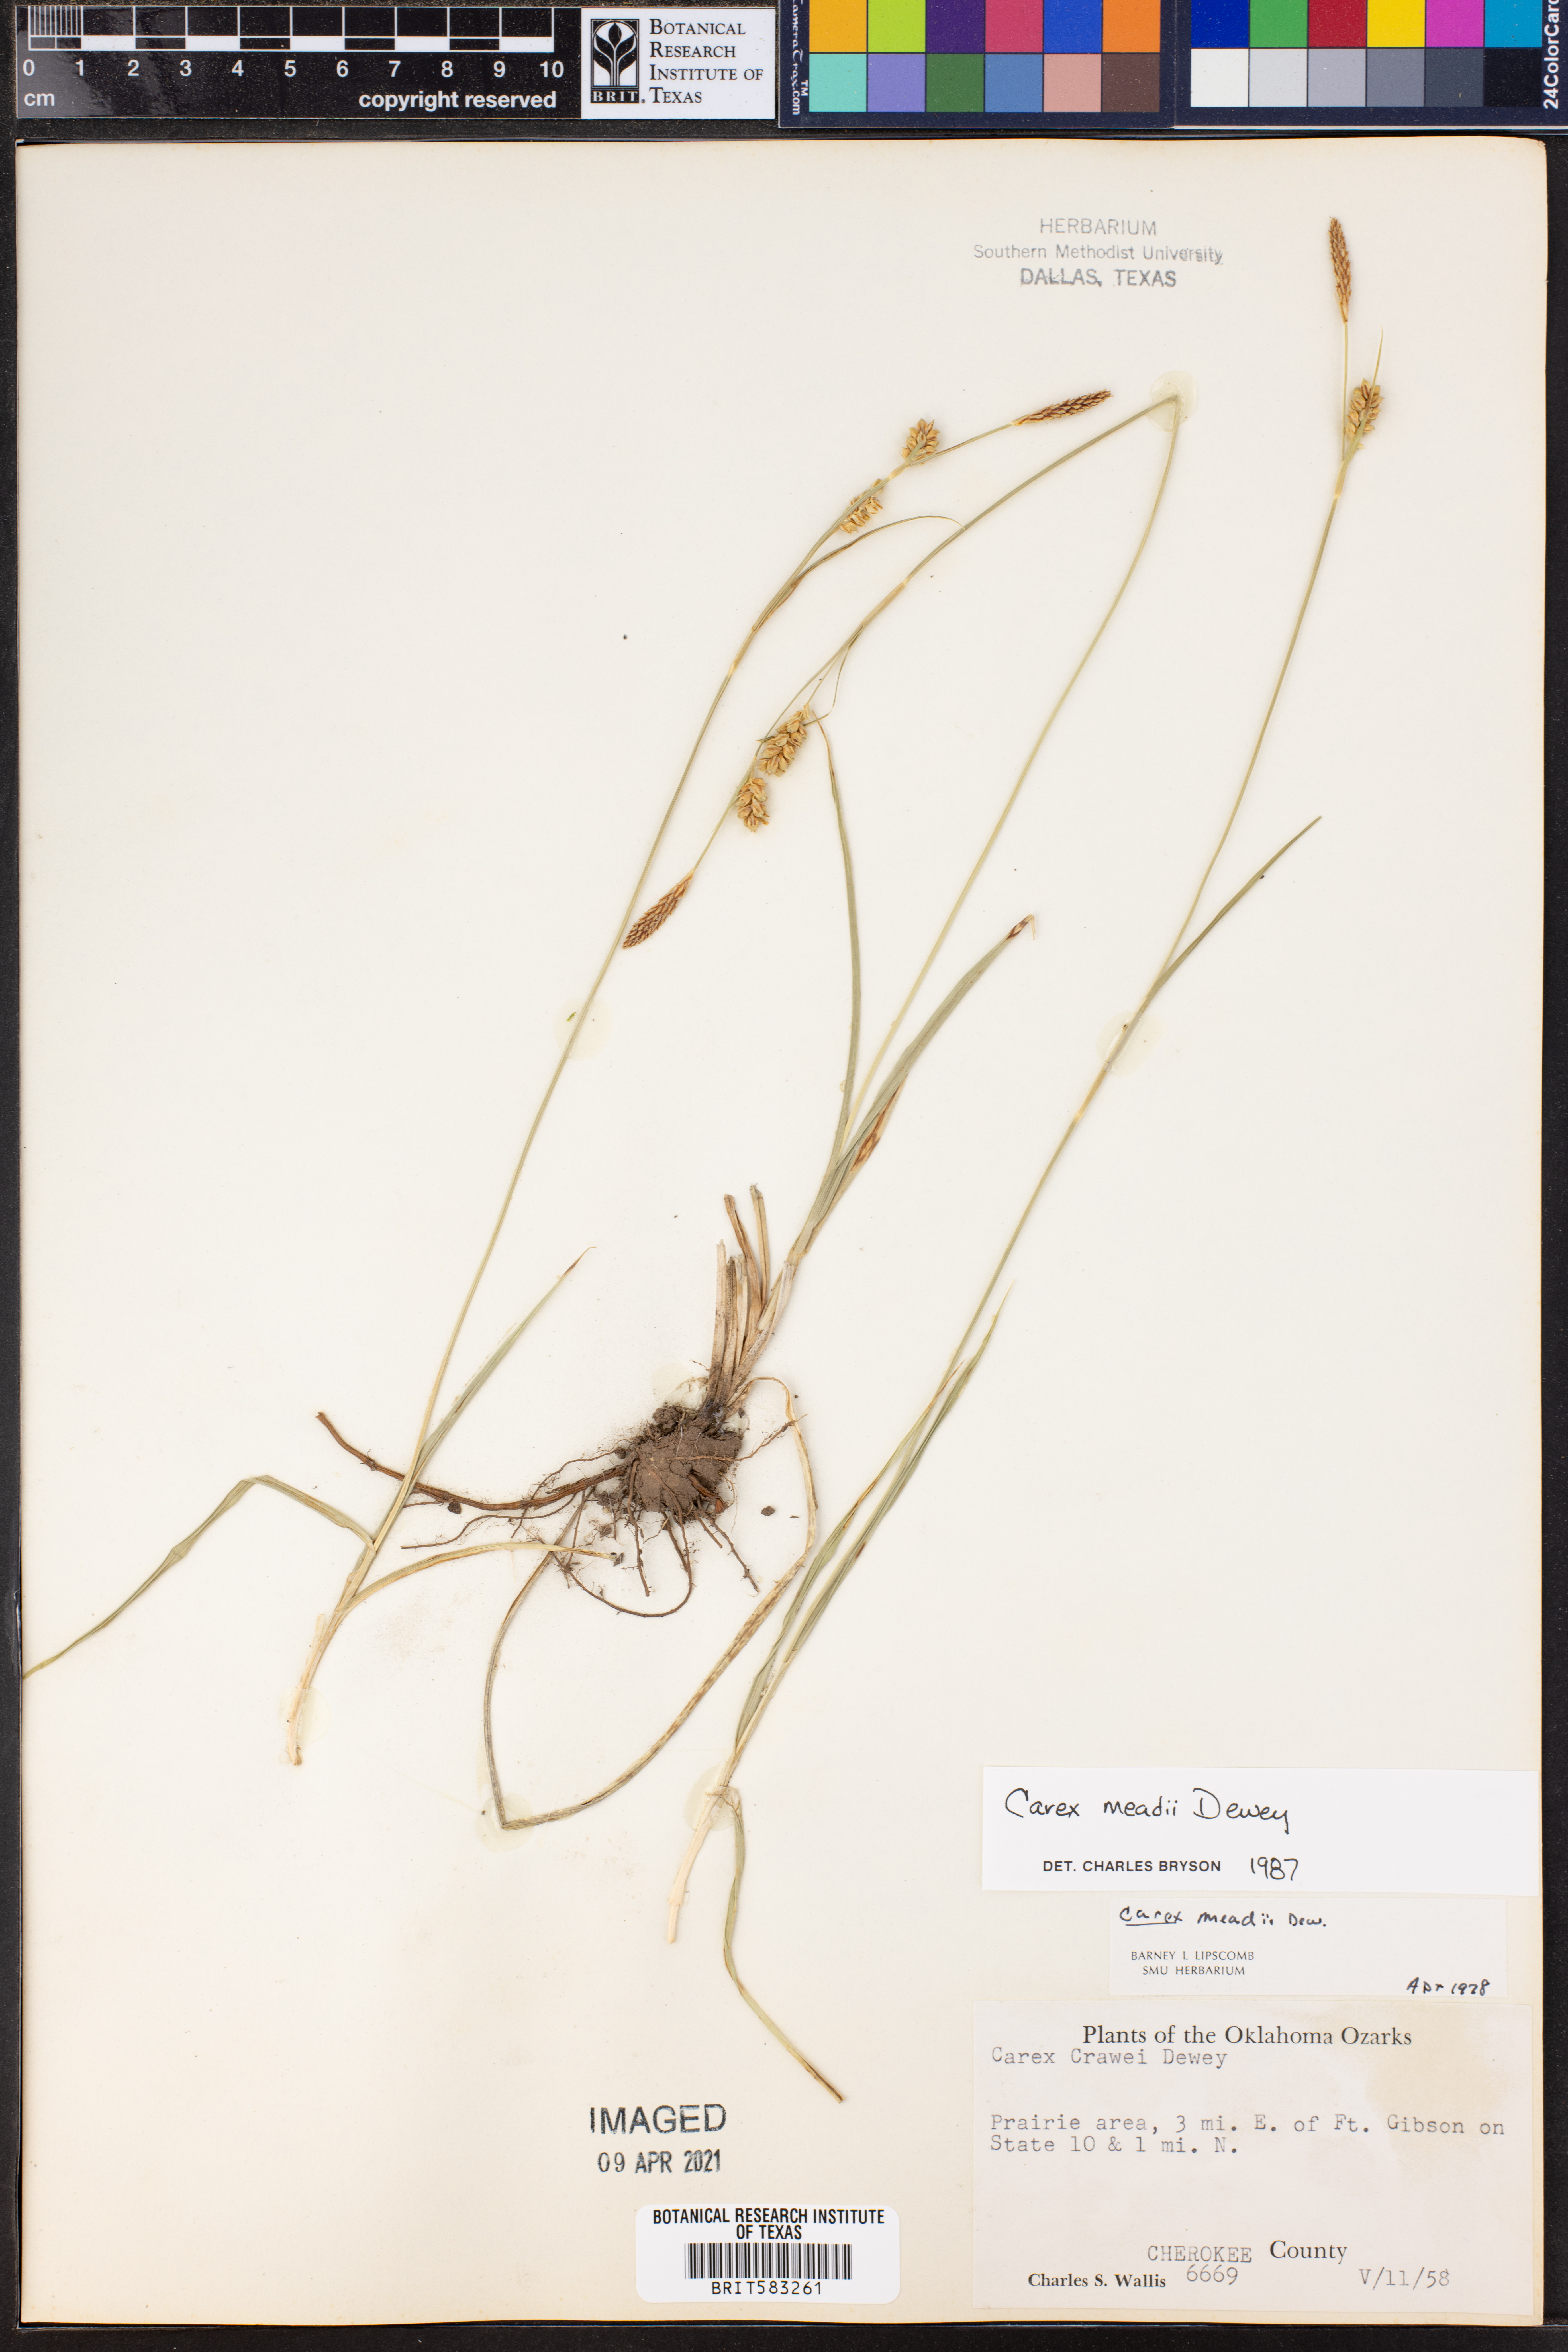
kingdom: Plantae
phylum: Tracheophyta
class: Liliopsida
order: Poales
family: Cyperaceae
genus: Carex
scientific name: Carex meadii
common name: Mead's sedge
